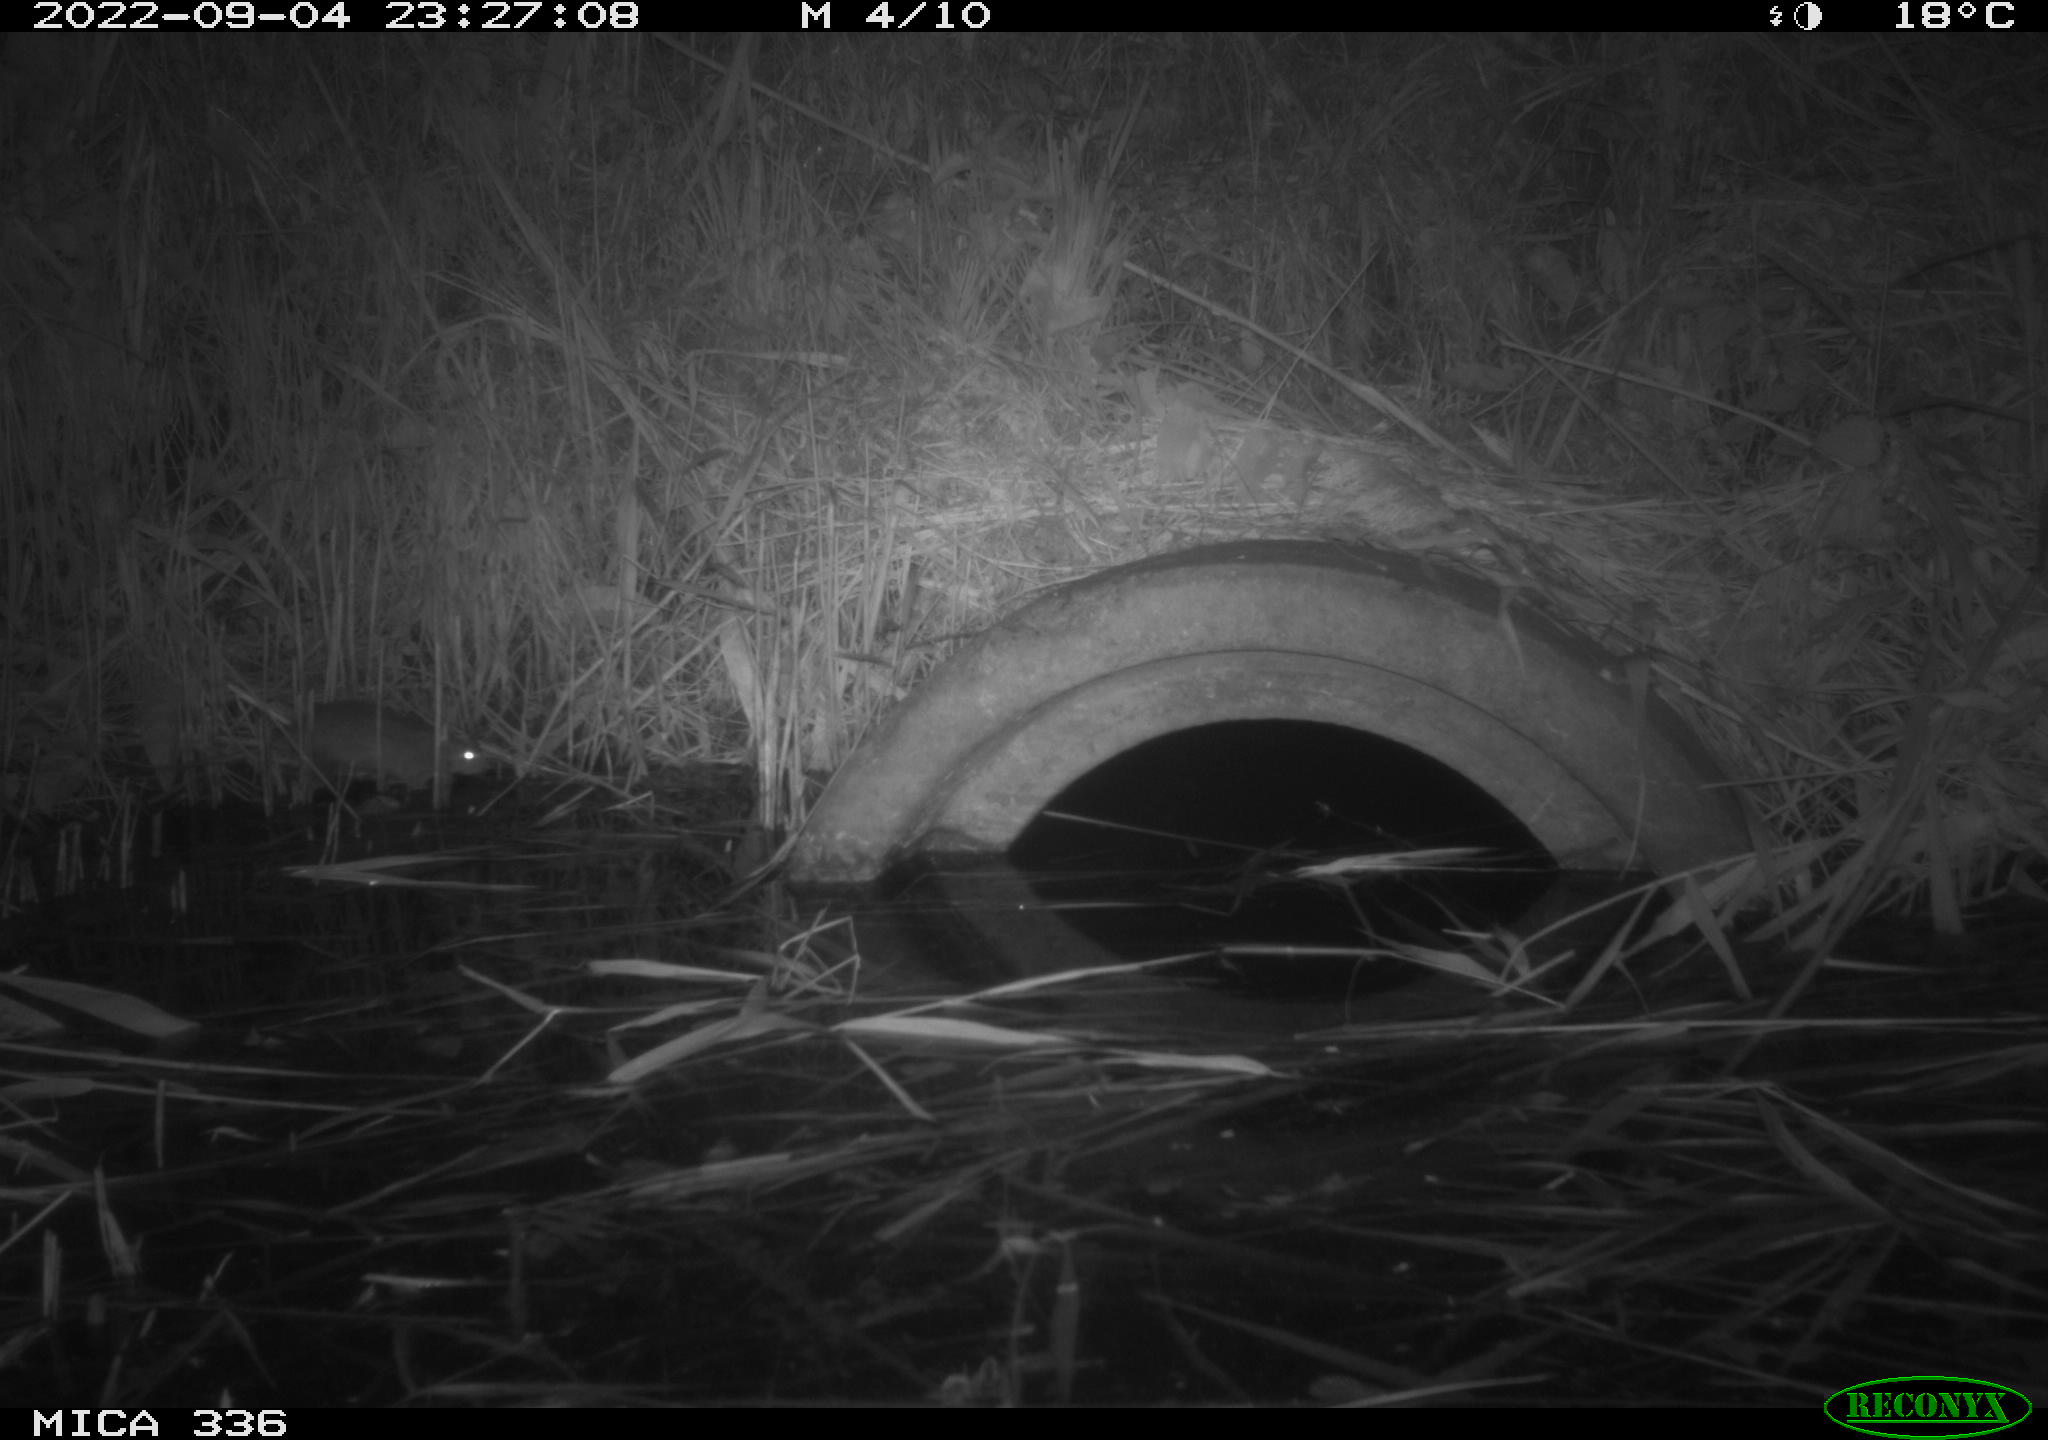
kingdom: Animalia
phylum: Chordata
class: Mammalia
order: Rodentia
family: Muridae
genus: Rattus
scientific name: Rattus norvegicus
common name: Brown rat
